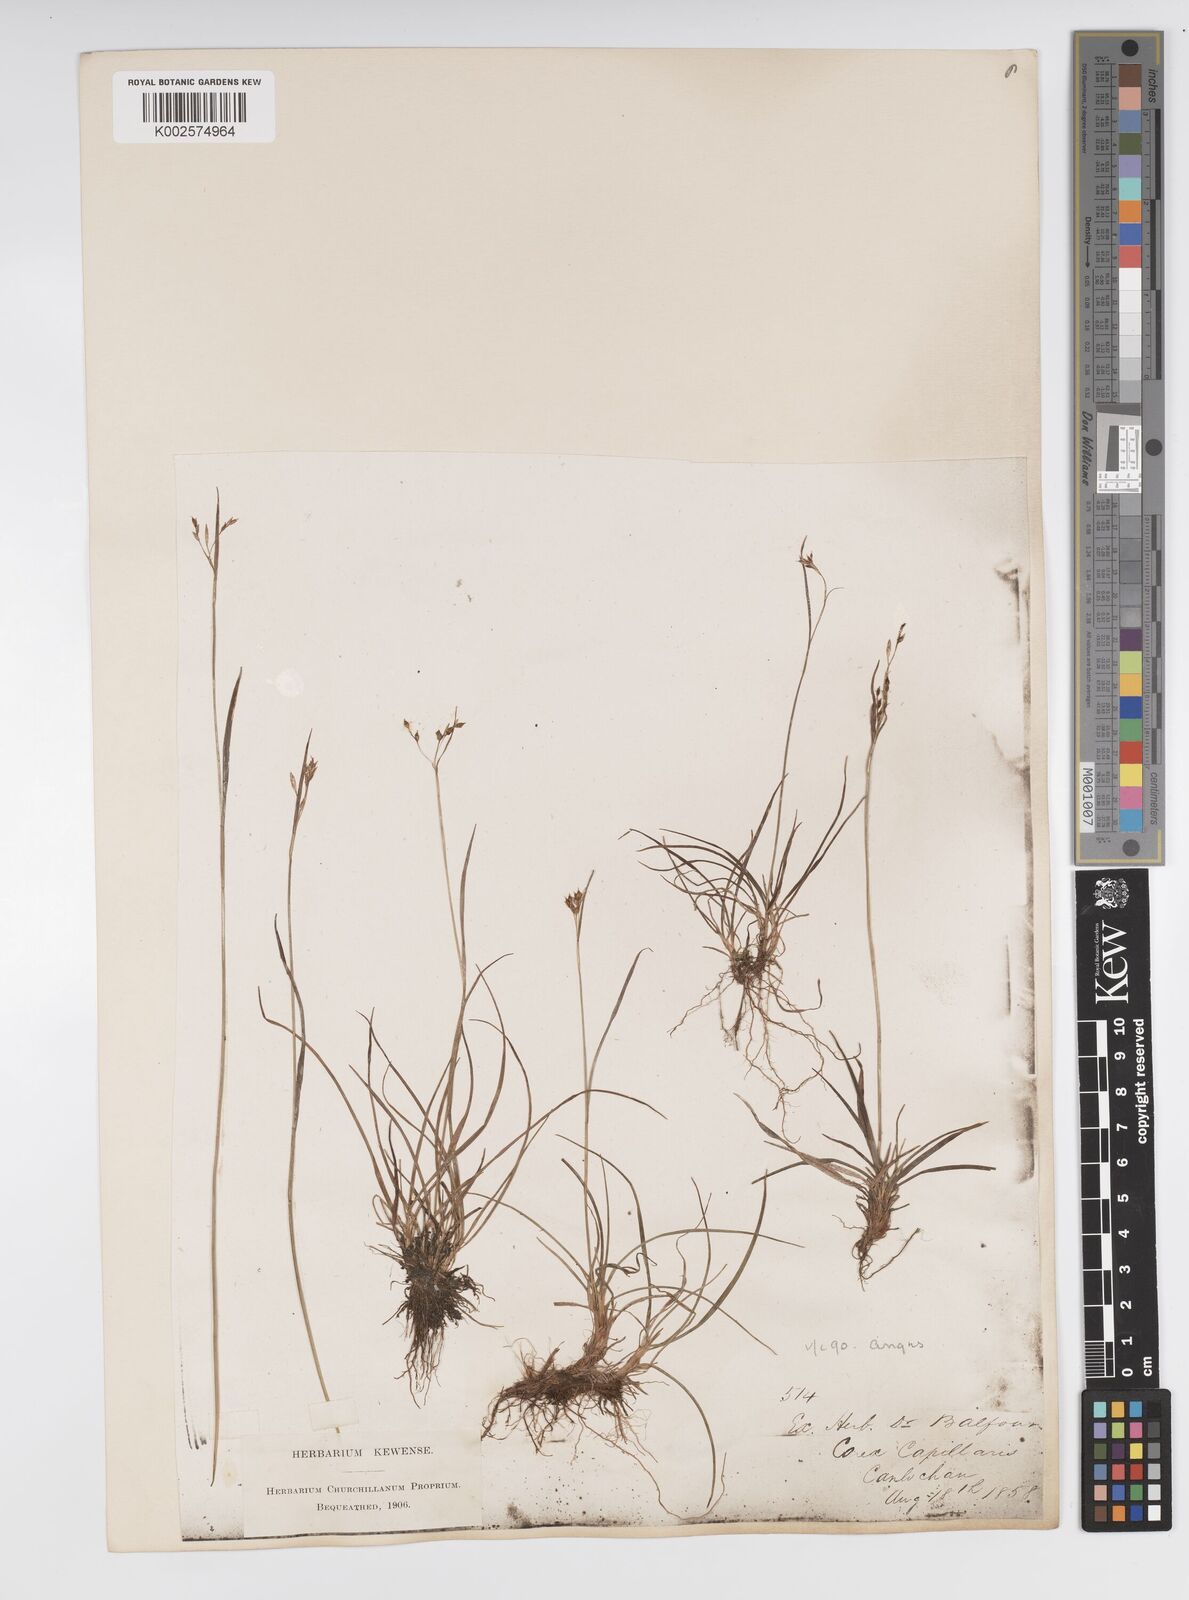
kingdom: Plantae
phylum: Tracheophyta
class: Liliopsida
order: Poales
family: Cyperaceae
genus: Carex
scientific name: Carex capillaris
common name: Hair sedge
